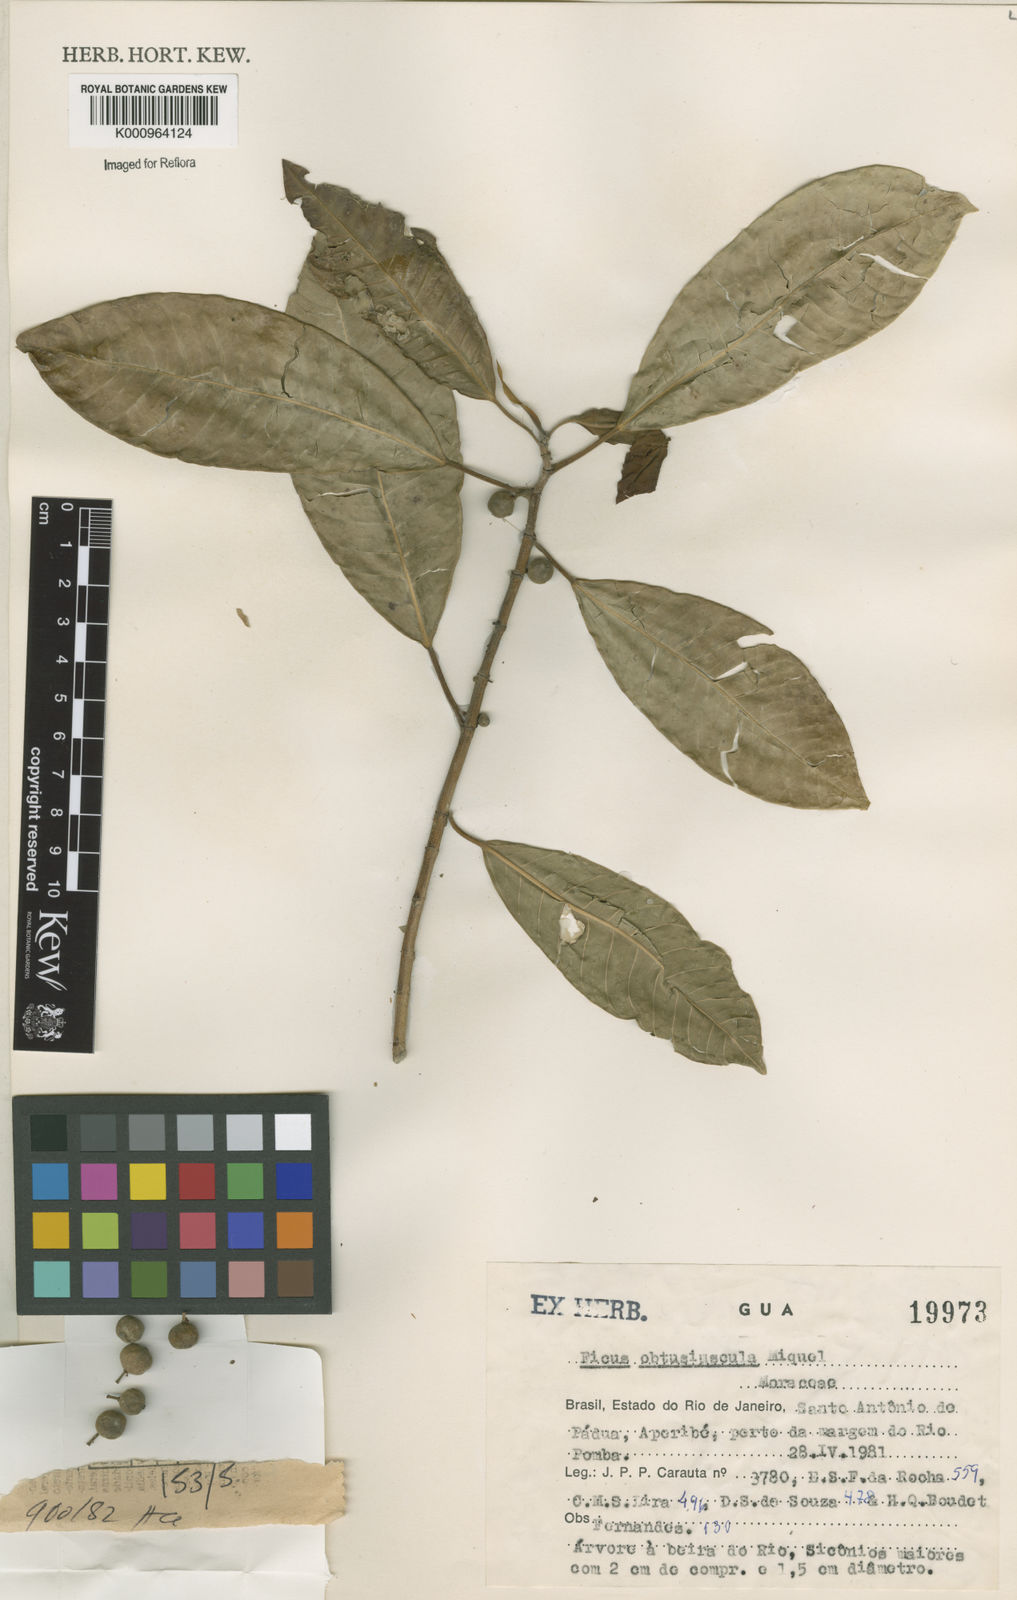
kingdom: Plantae
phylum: Tracheophyta
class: Magnoliopsida
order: Rosales
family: Moraceae
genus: Ficus
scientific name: Ficus obtusiuscula
